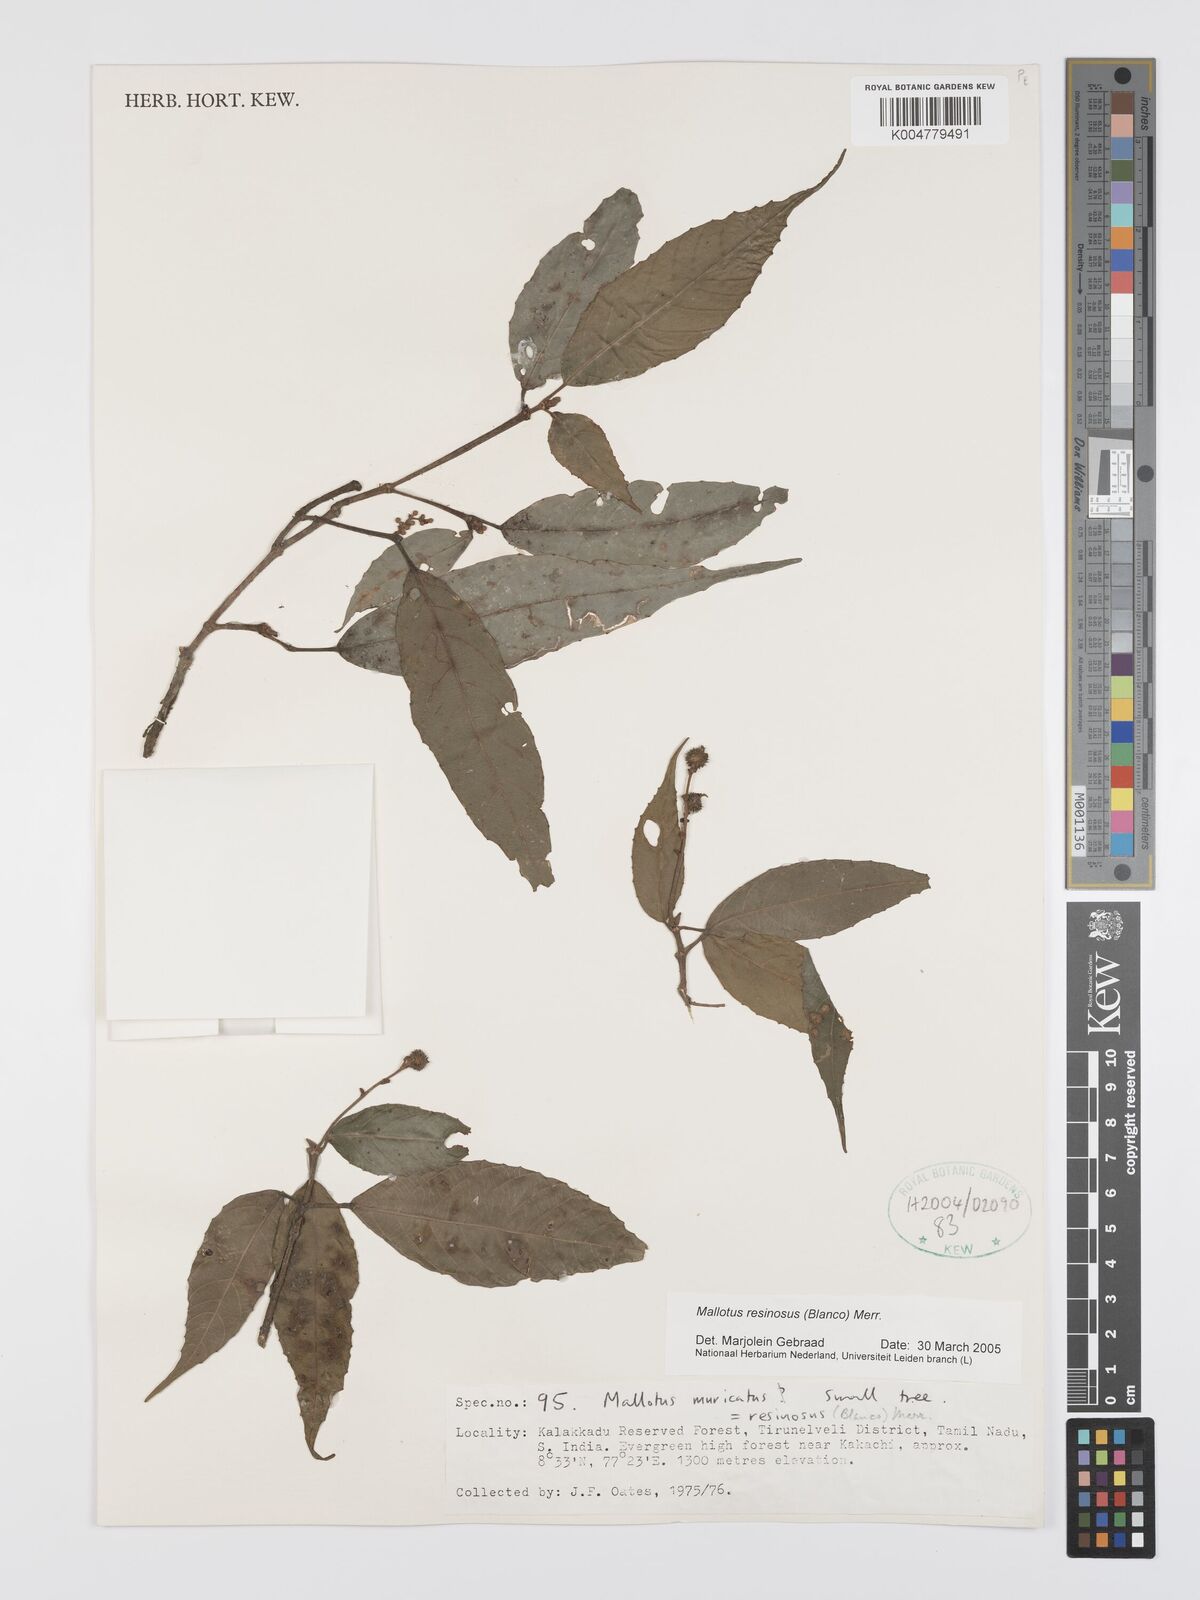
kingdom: Plantae
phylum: Tracheophyta
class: Magnoliopsida
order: Malpighiales
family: Euphorbiaceae
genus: Mallotus
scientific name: Mallotus resinosus
